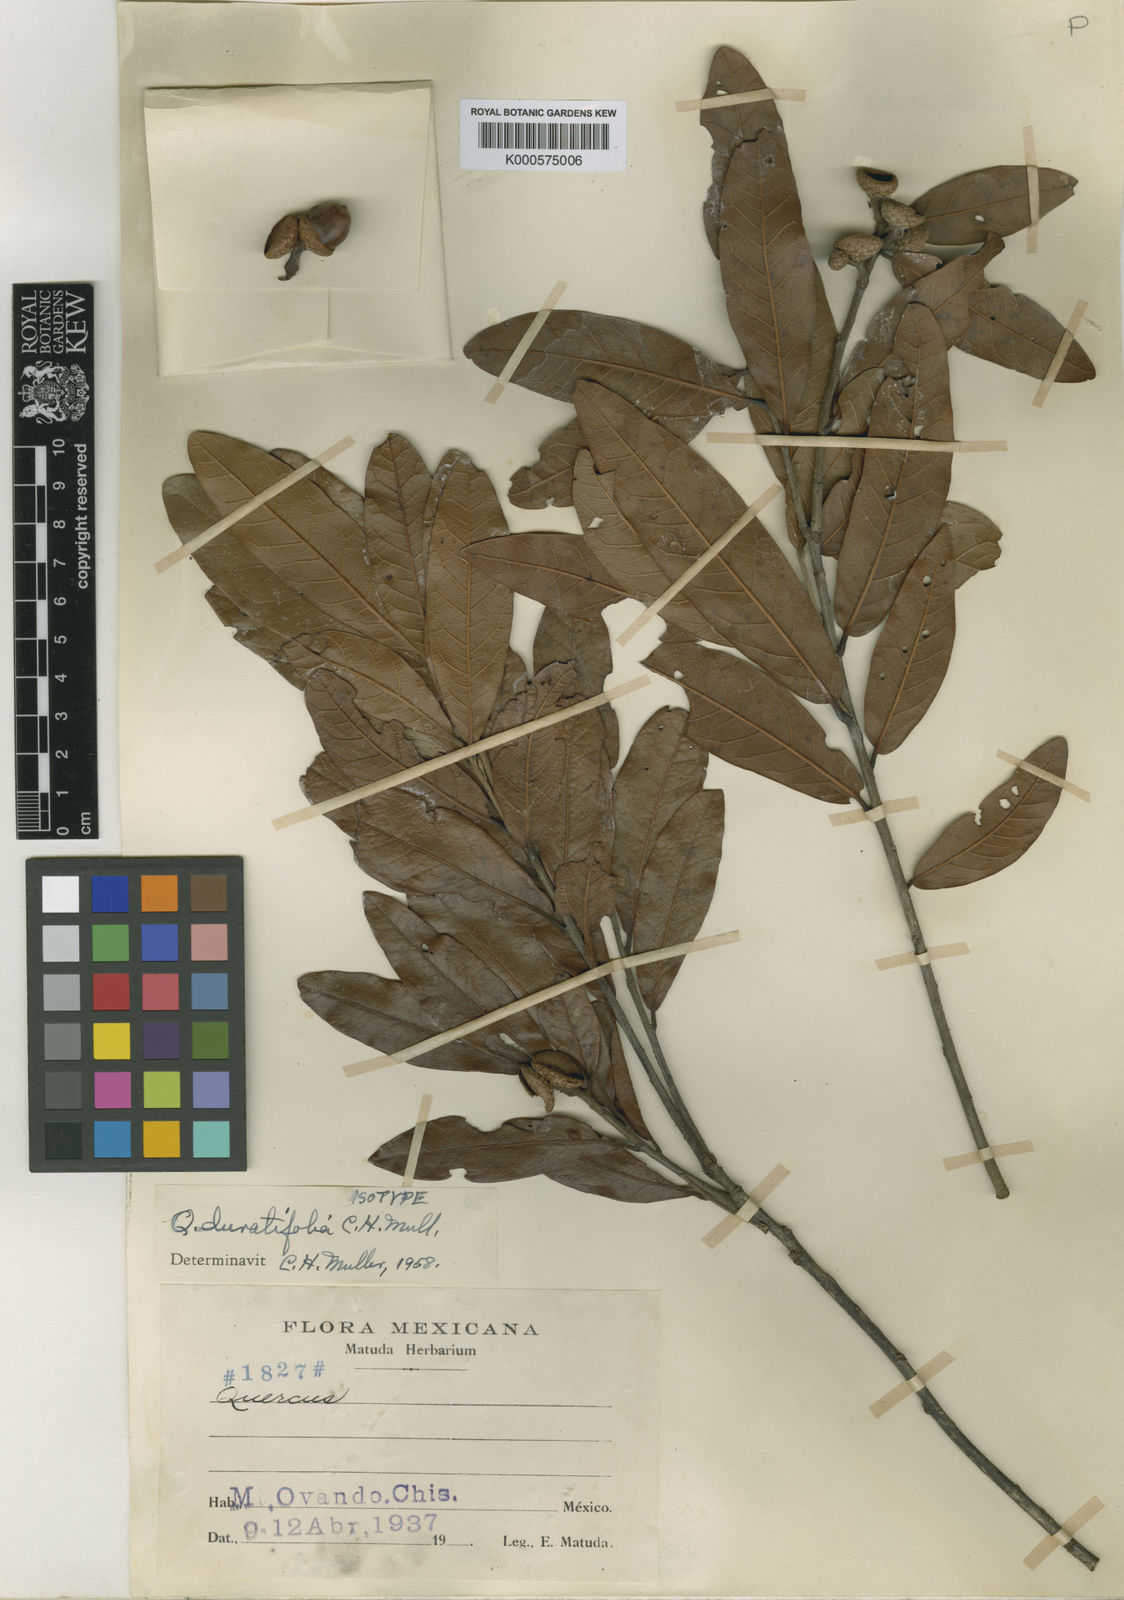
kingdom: Plantae
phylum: Tracheophyta
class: Magnoliopsida
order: Fagales
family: Fagaceae
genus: Quercus
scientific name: Quercus salicifolia
